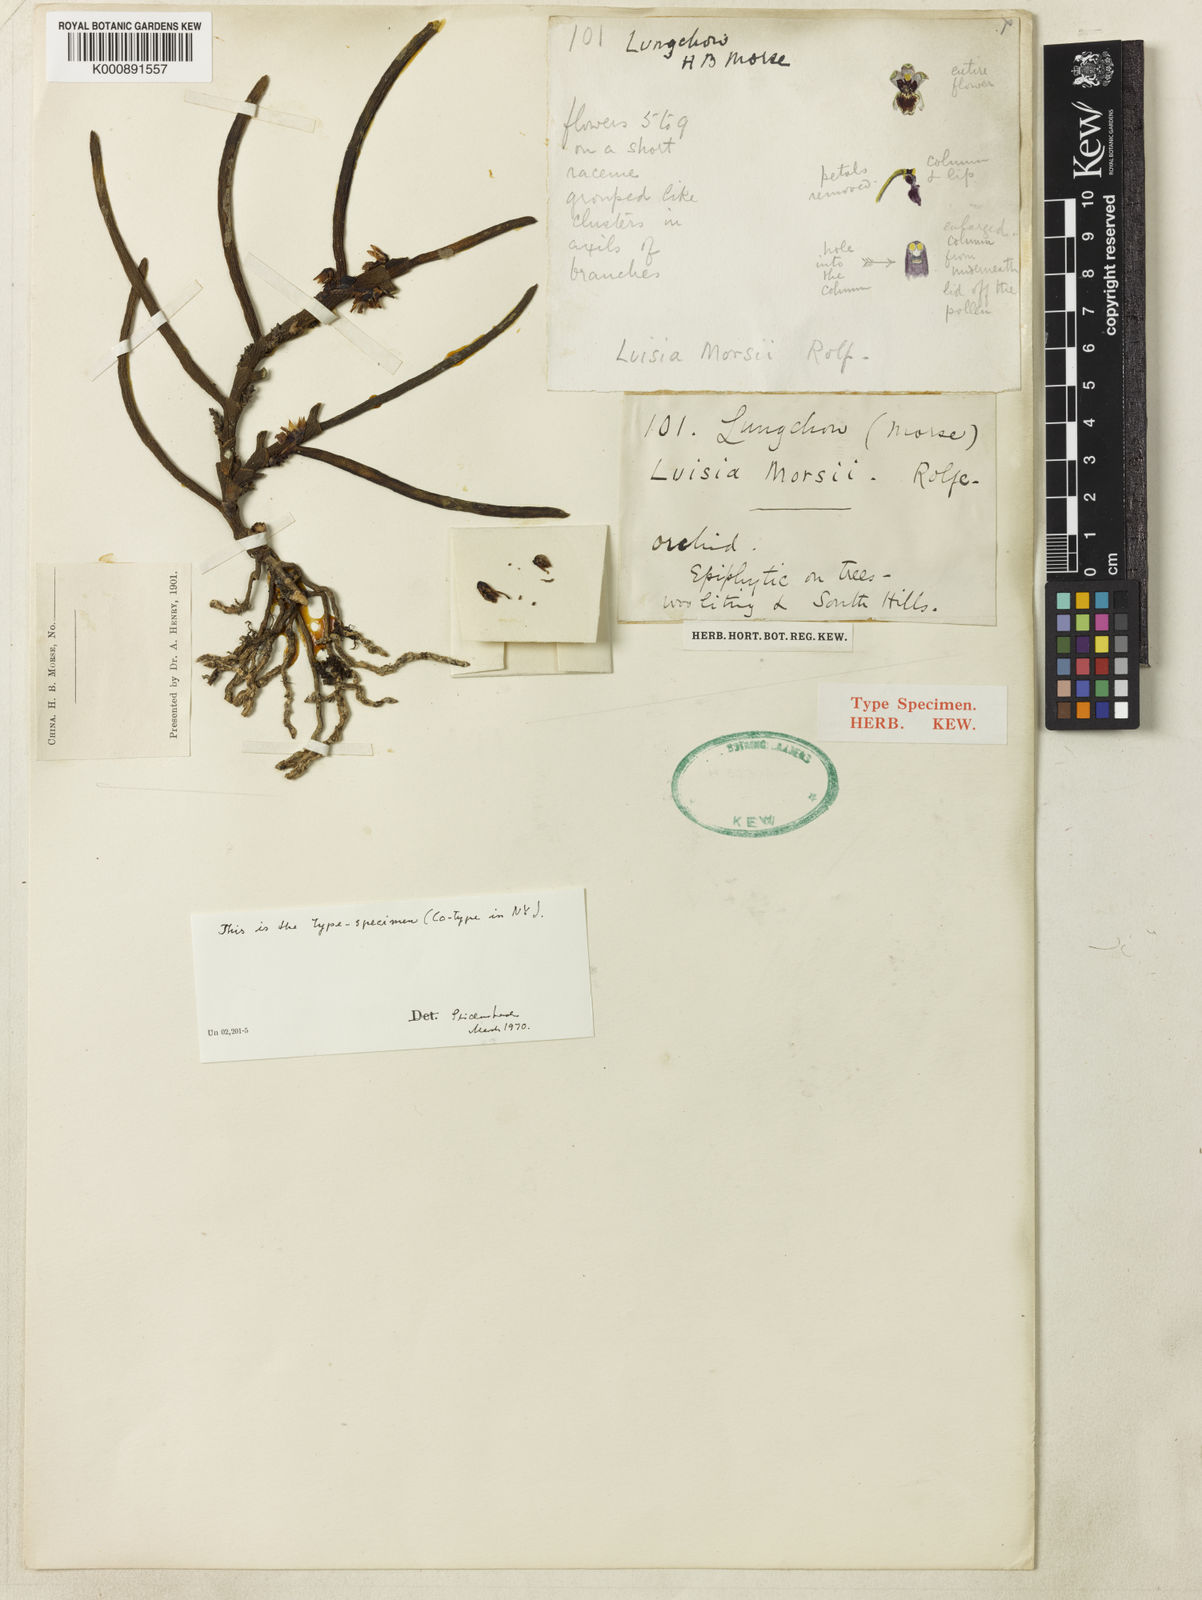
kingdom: Plantae
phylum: Tracheophyta
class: Liliopsida
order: Asparagales
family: Orchidaceae
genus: Luisia
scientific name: Luisia morsei
